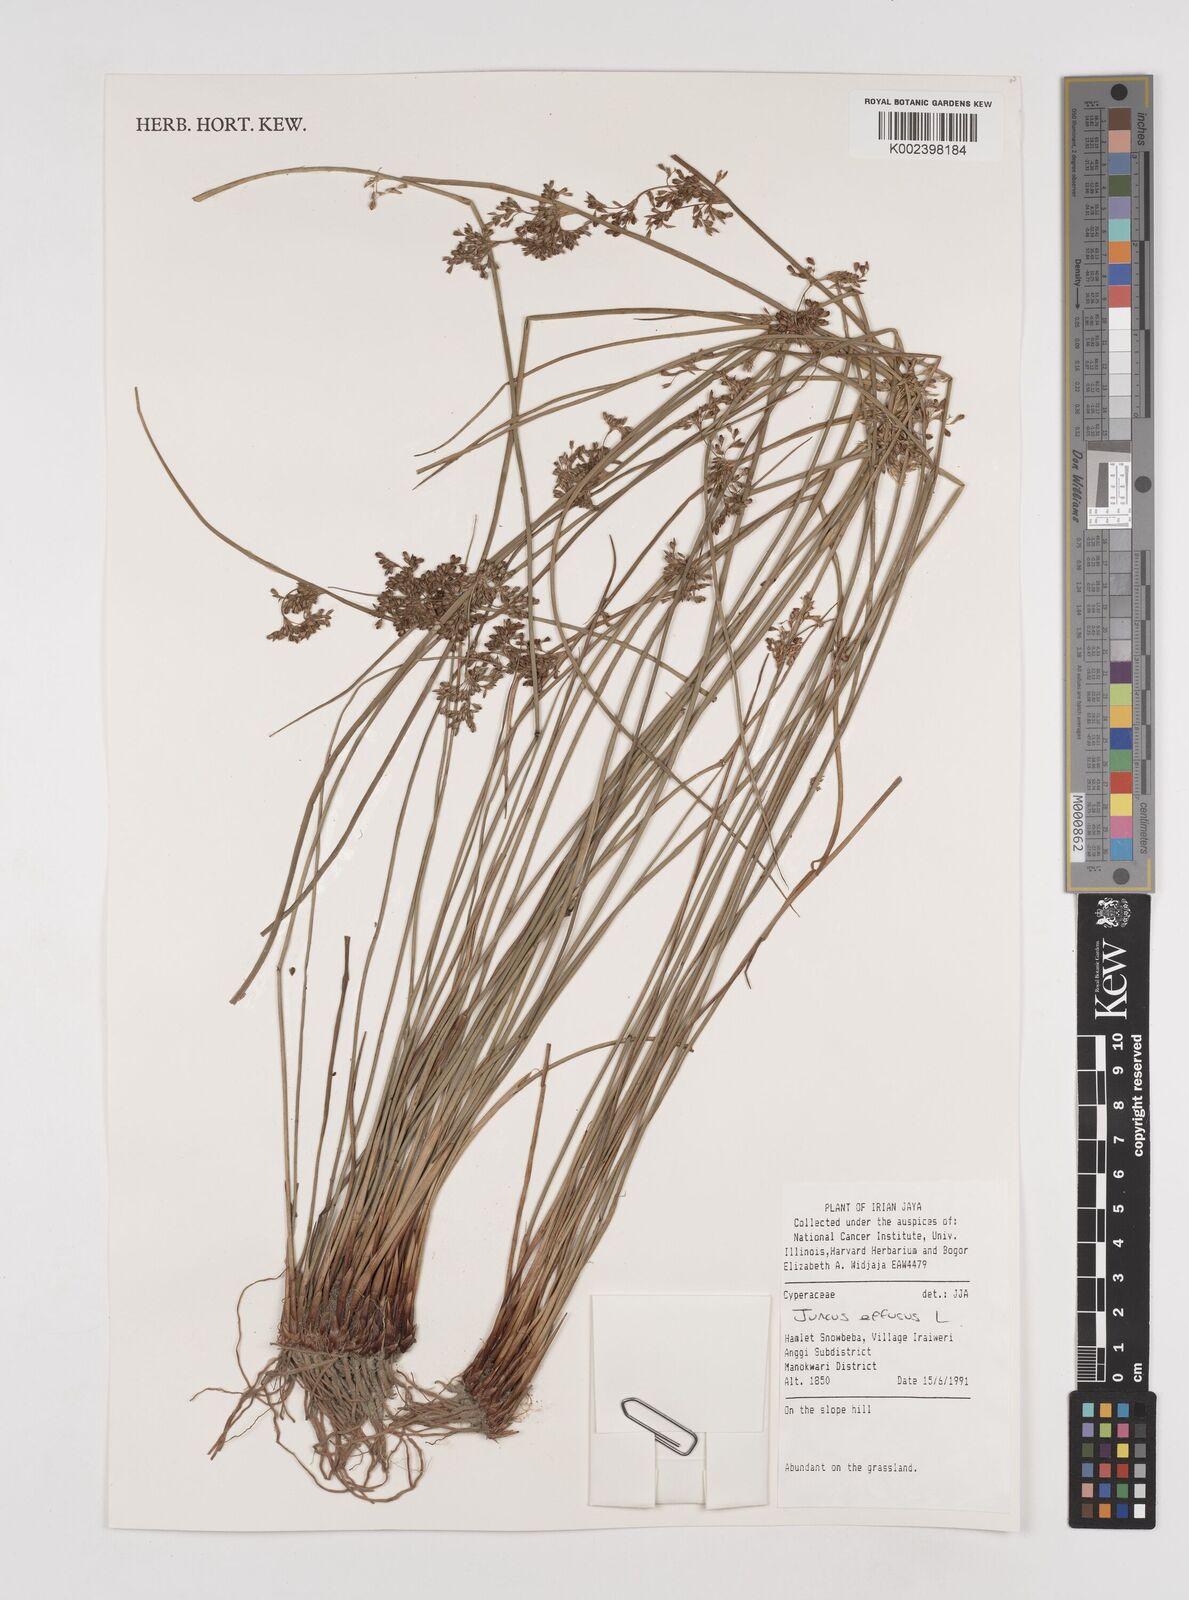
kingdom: Plantae
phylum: Tracheophyta
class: Liliopsida
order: Poales
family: Juncaceae
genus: Juncus
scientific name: Juncus decipiens
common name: Lamp rush
